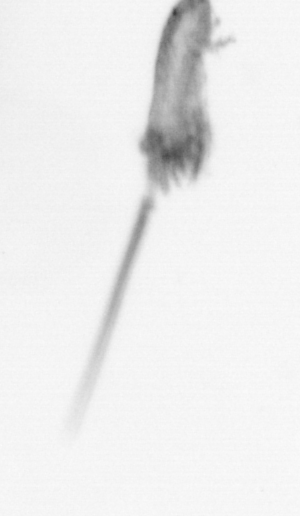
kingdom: Animalia
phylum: Arthropoda
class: Copepoda
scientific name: Copepoda
